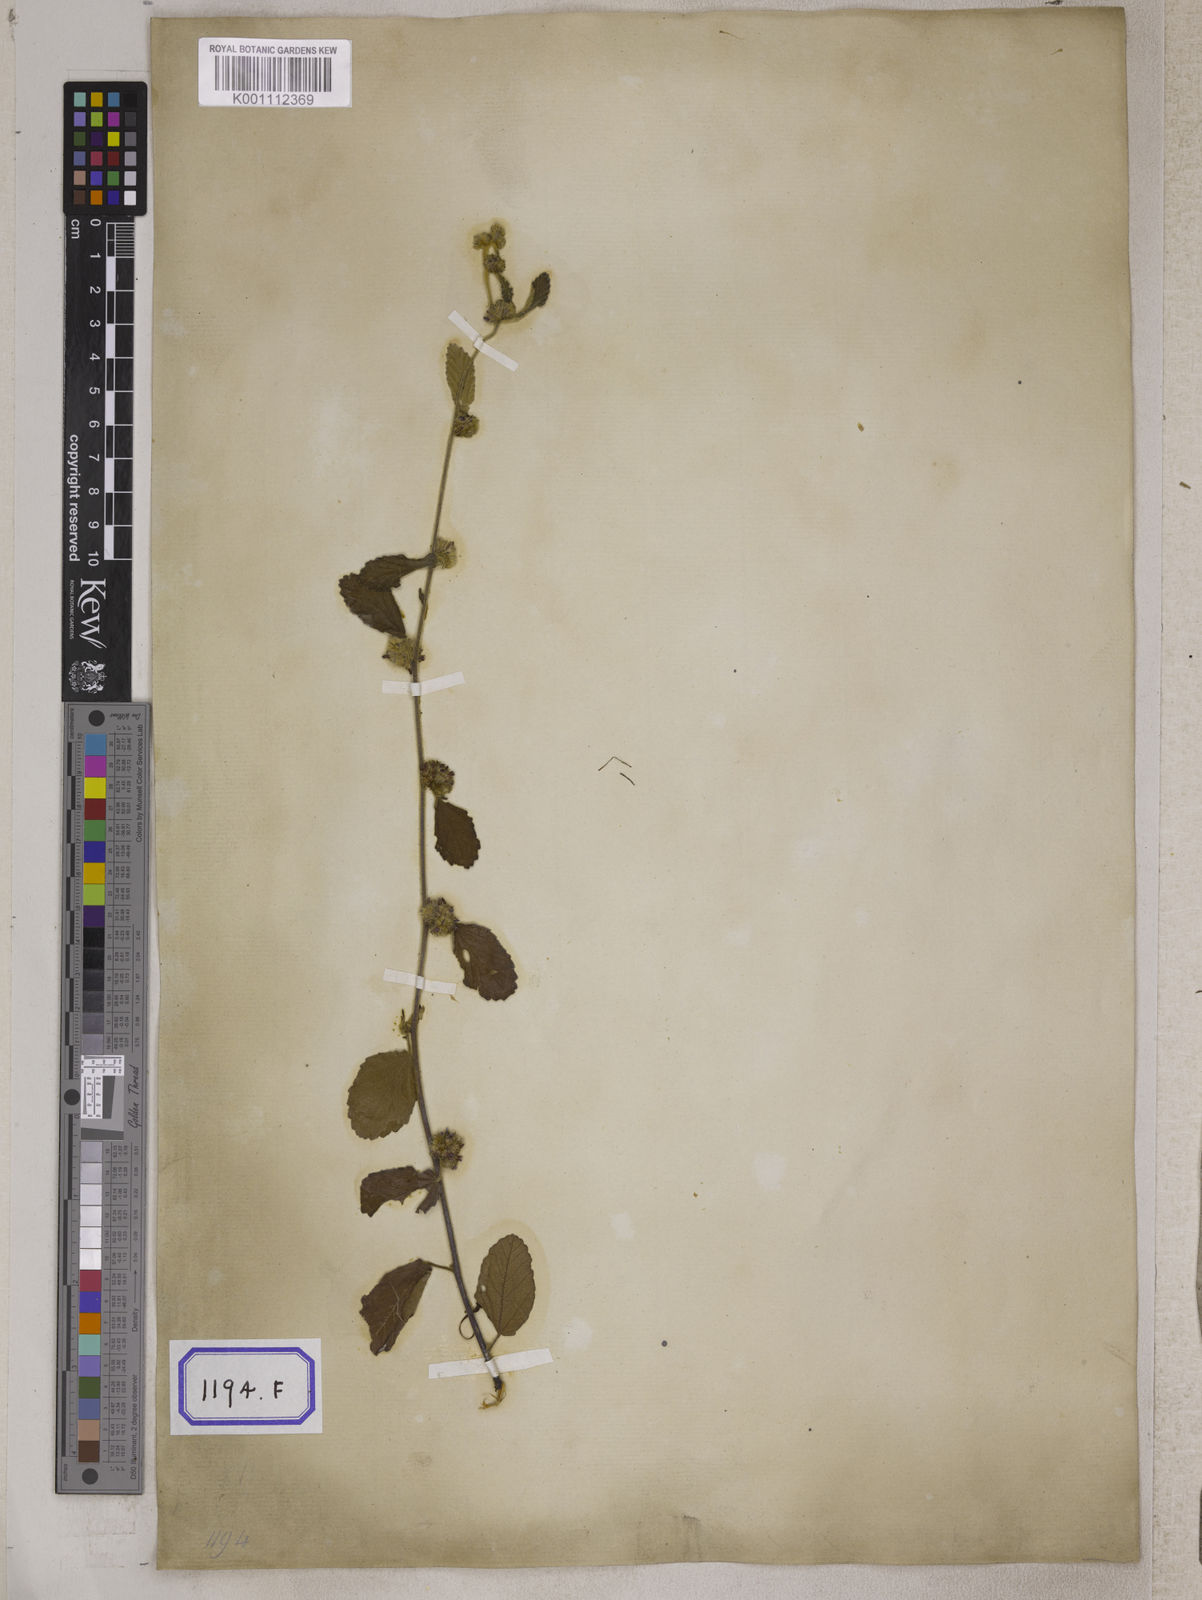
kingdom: Plantae
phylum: Tracheophyta
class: Magnoliopsida
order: Malvales
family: Malvaceae
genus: Waltheria
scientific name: Waltheria indica
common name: Leather-coat
